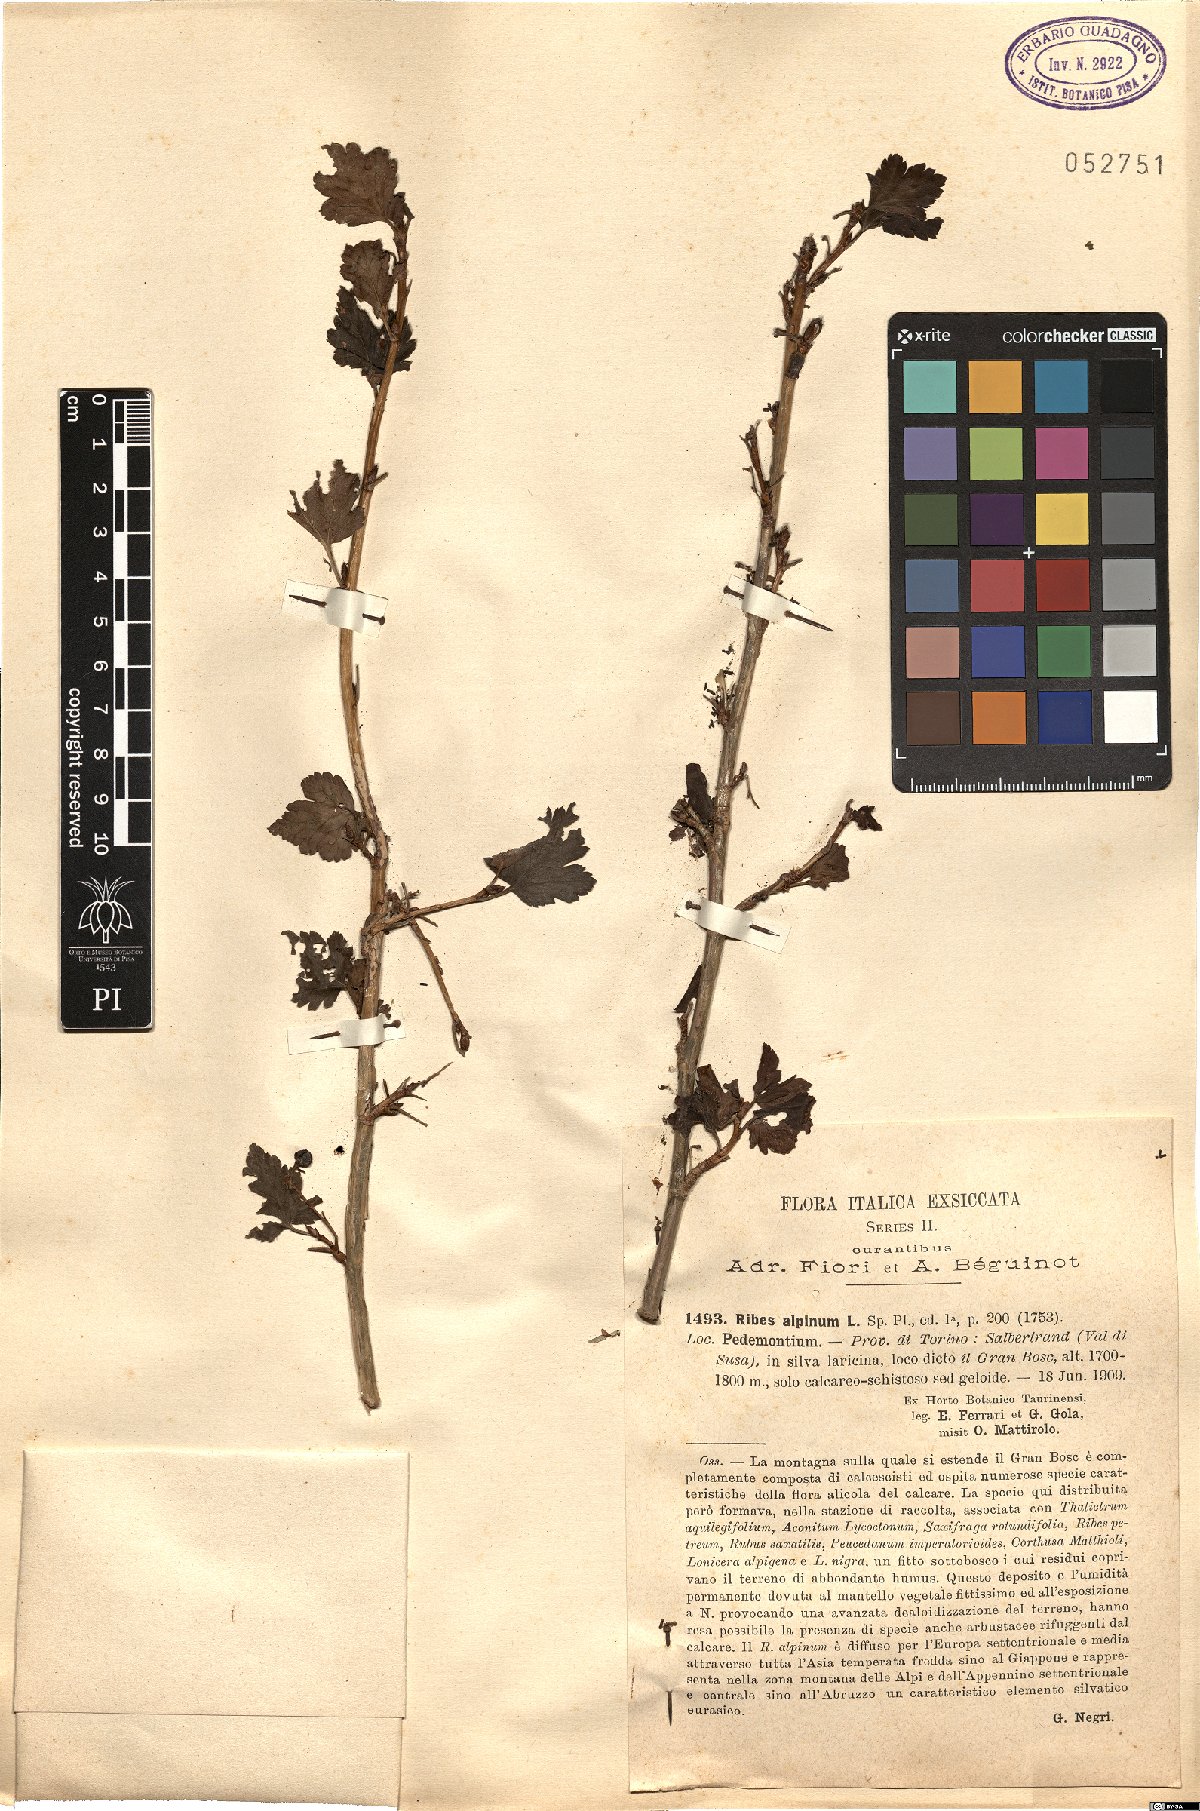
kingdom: Plantae
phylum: Tracheophyta
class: Magnoliopsida
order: Saxifragales
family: Grossulariaceae
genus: Ribes
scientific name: Ribes alpinum
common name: Alpine currant
